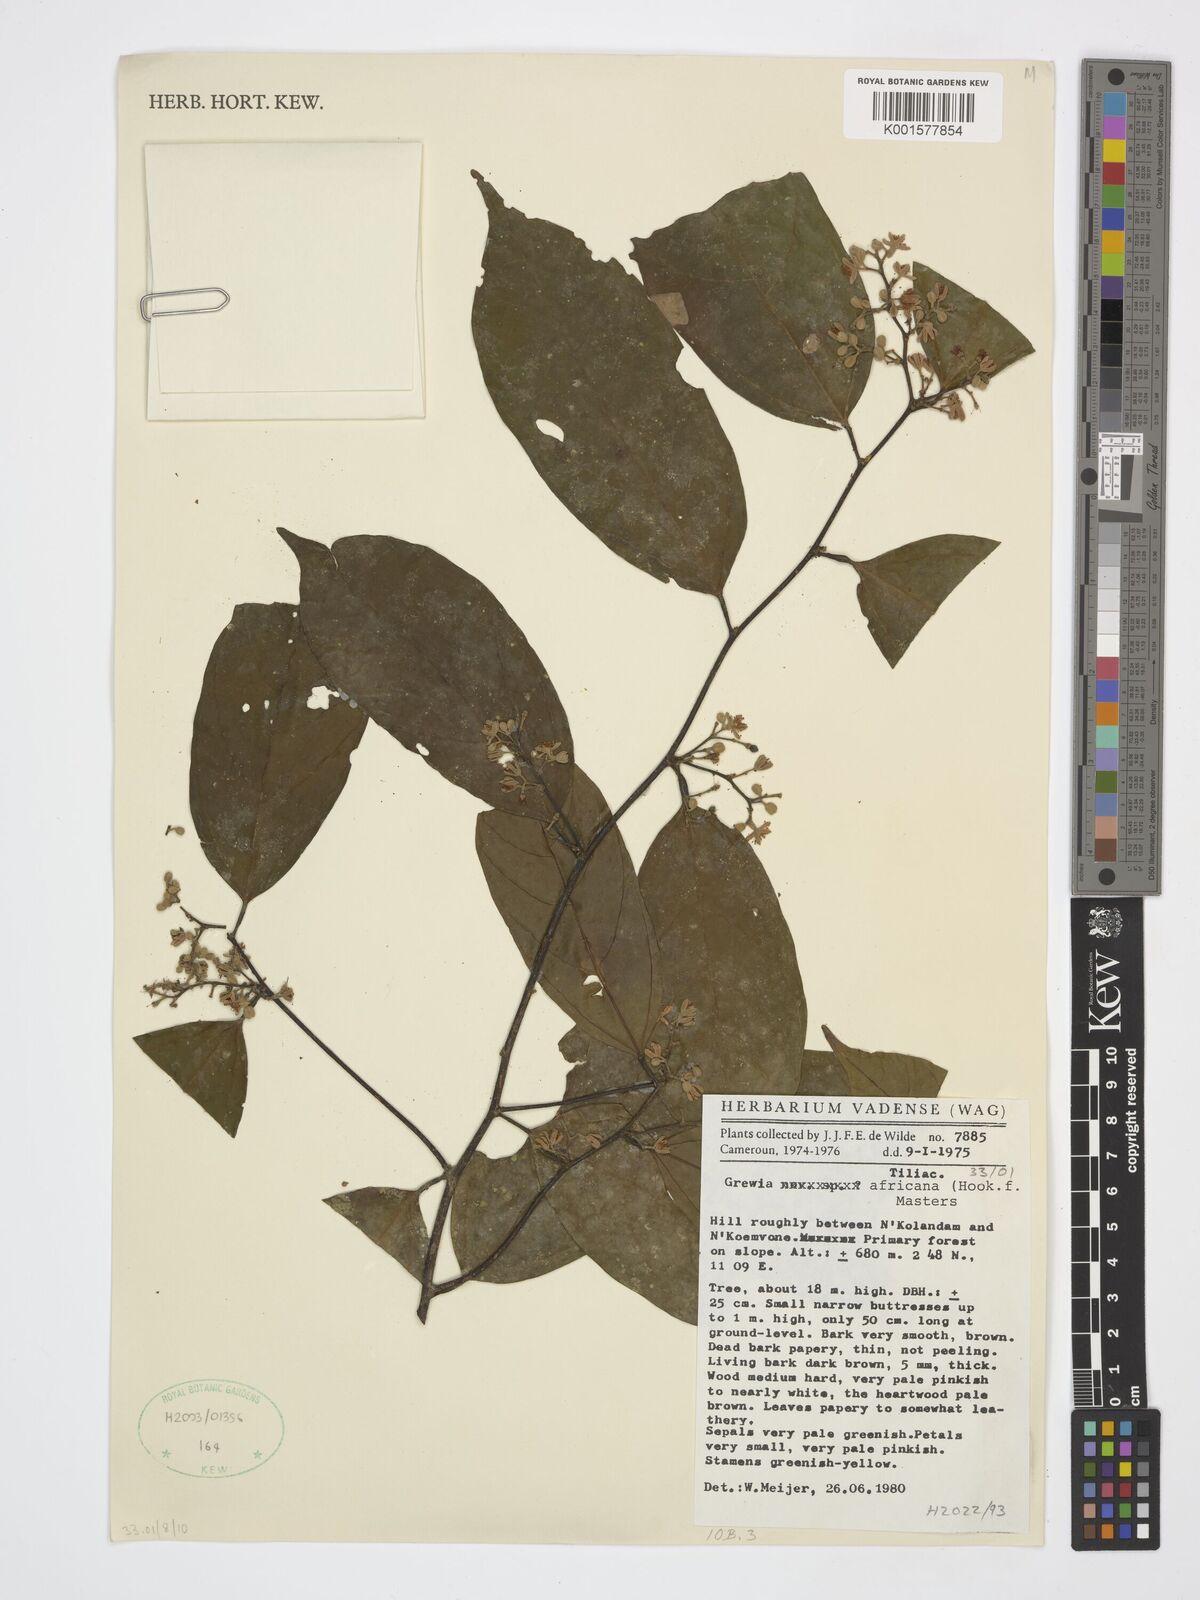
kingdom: Plantae
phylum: Tracheophyta
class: Magnoliopsida
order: Malvales
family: Malvaceae
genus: Microcos
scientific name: Microcos africana
